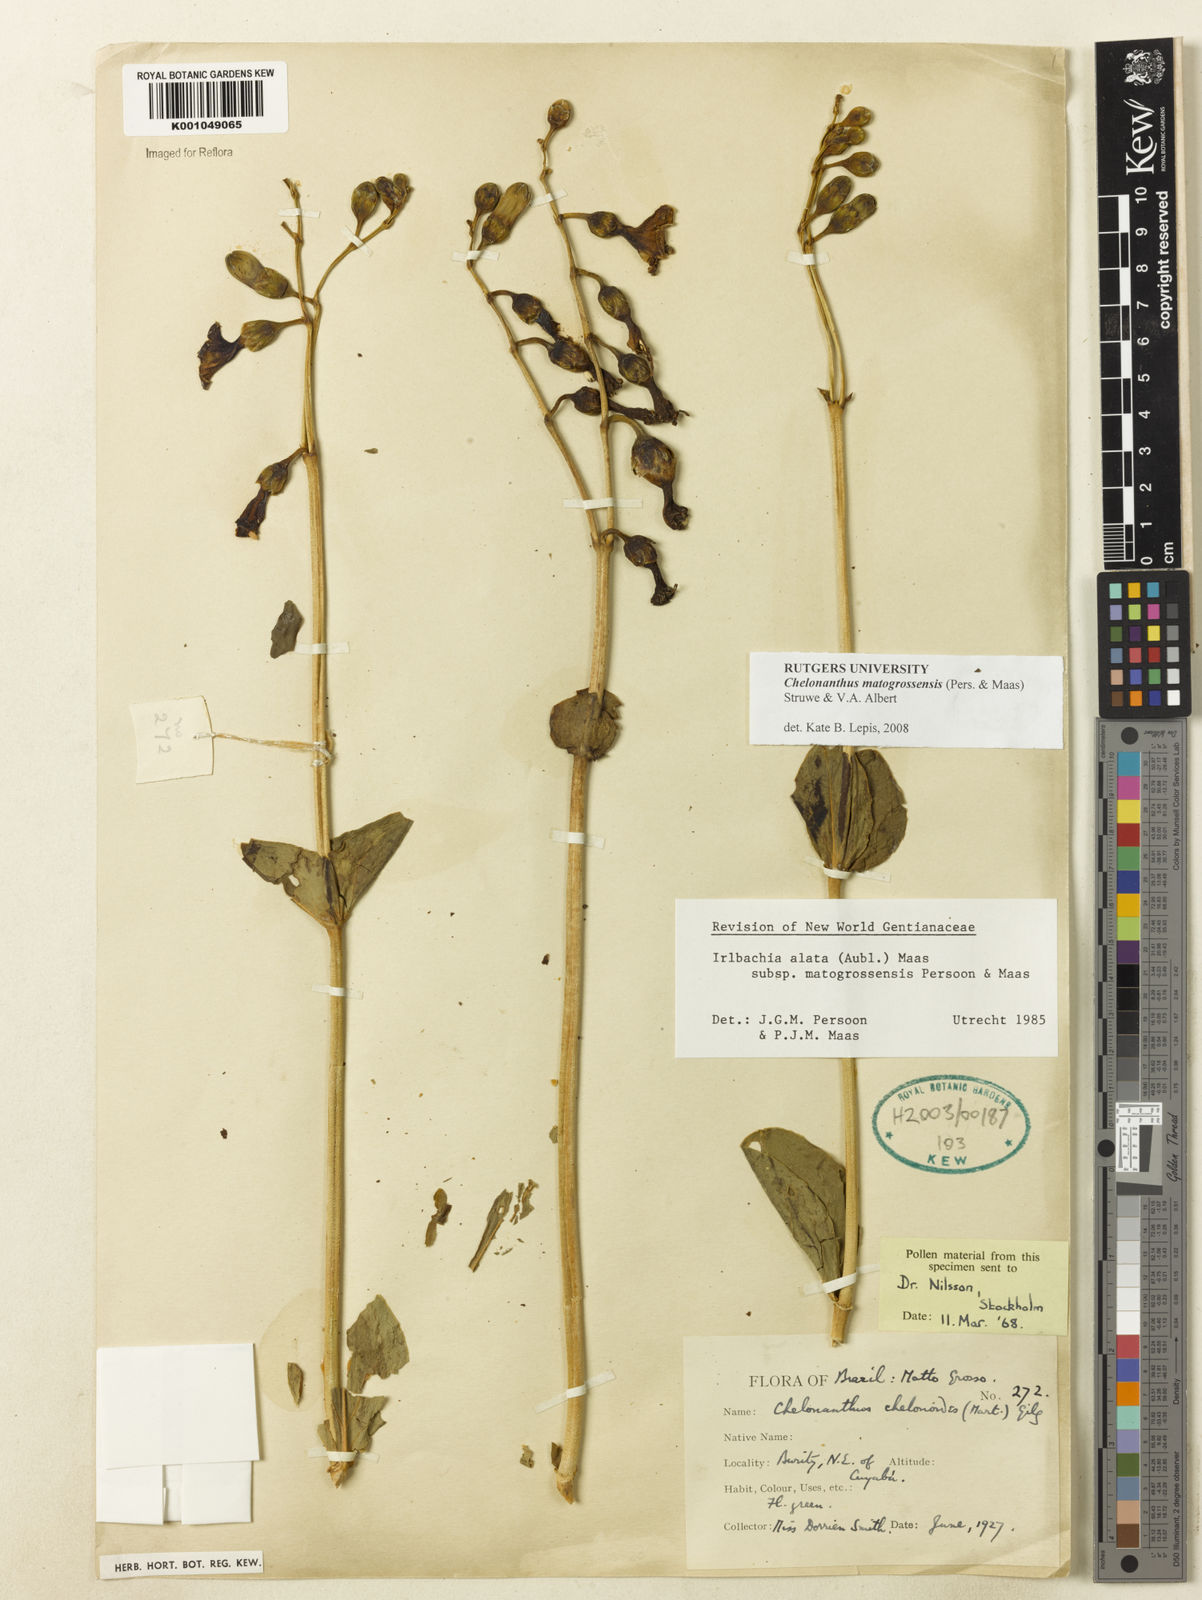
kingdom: Plantae
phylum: Tracheophyta
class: Magnoliopsida
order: Gentianales
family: Gentianaceae
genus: Chelonanthus
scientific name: Chelonanthus matogrossensis
